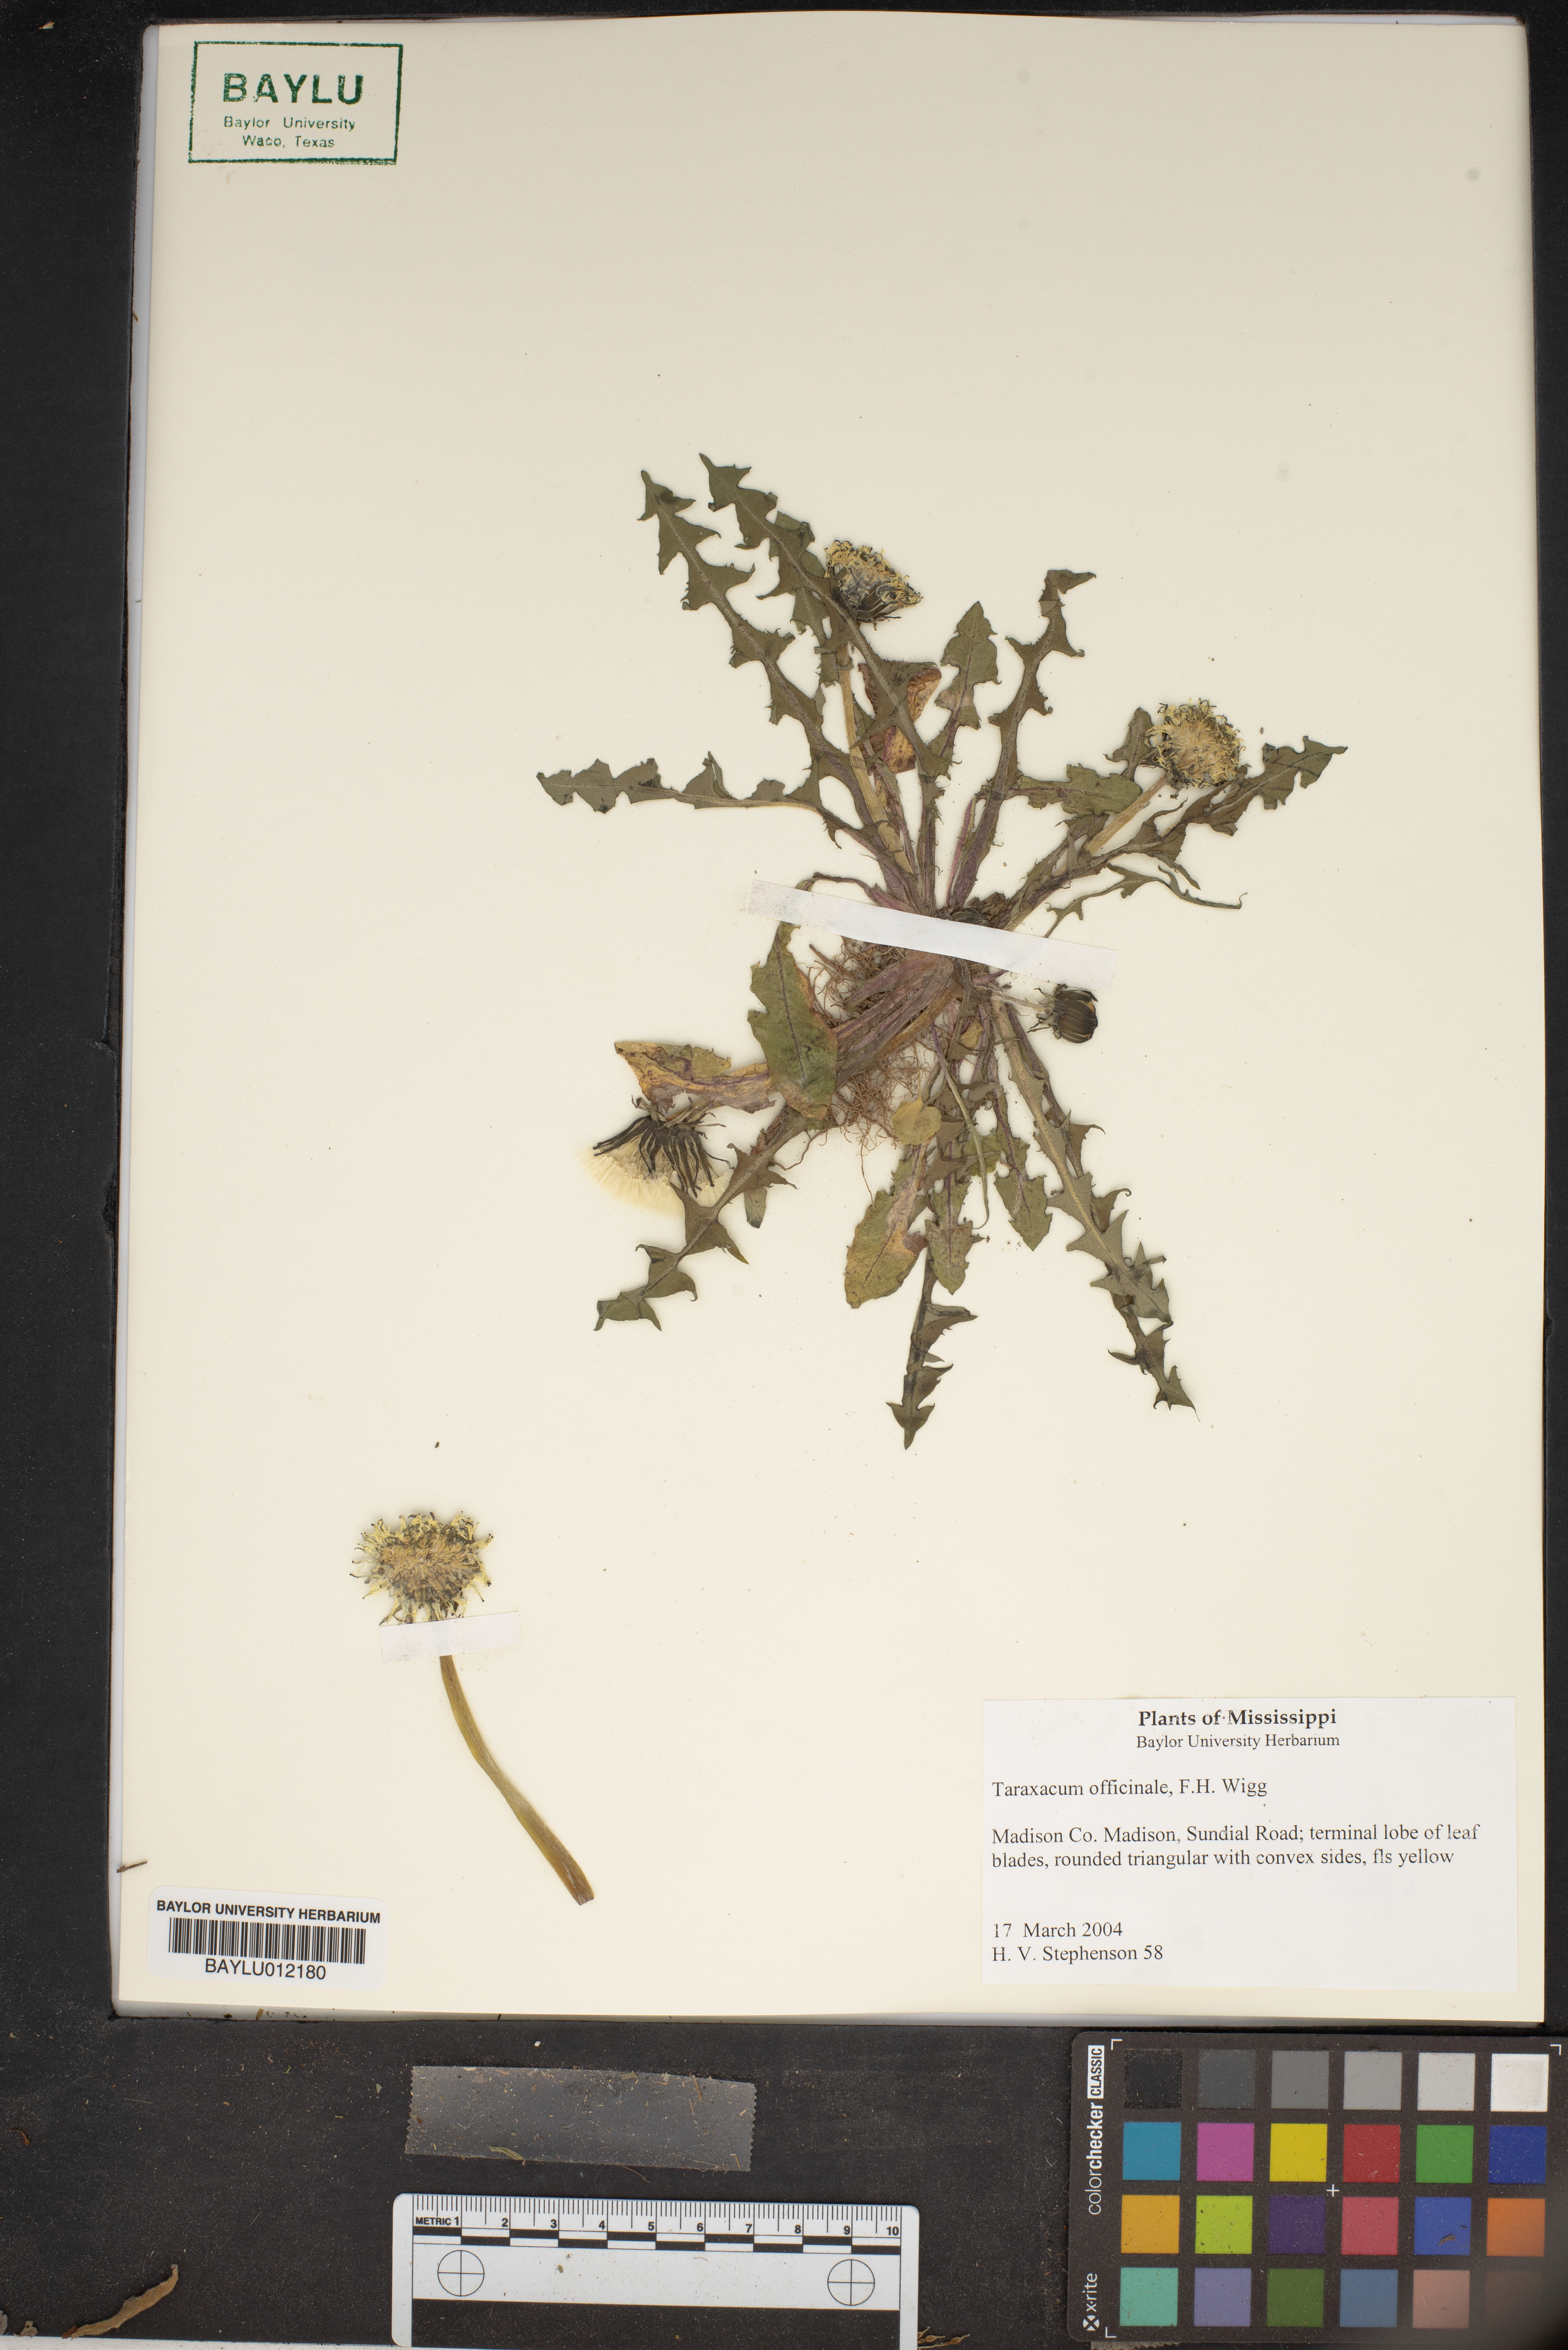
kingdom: Plantae
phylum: Tracheophyta
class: Magnoliopsida
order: Asterales
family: Asteraceae
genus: Taraxacum
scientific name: Taraxacum officinale
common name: Common dandelion
